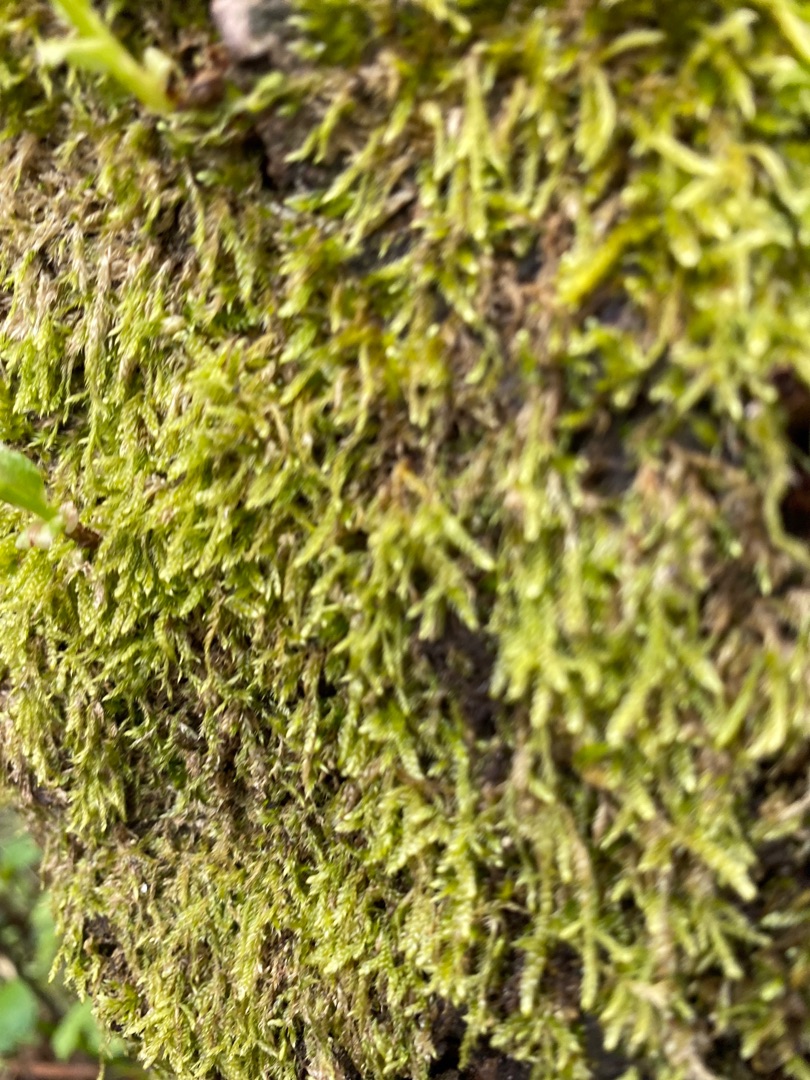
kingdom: Plantae
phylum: Bryophyta
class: Bryopsida
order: Hypnales
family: Hypnaceae
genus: Hypnum
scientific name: Hypnum cupressiforme
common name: Almindelig cypresmos
